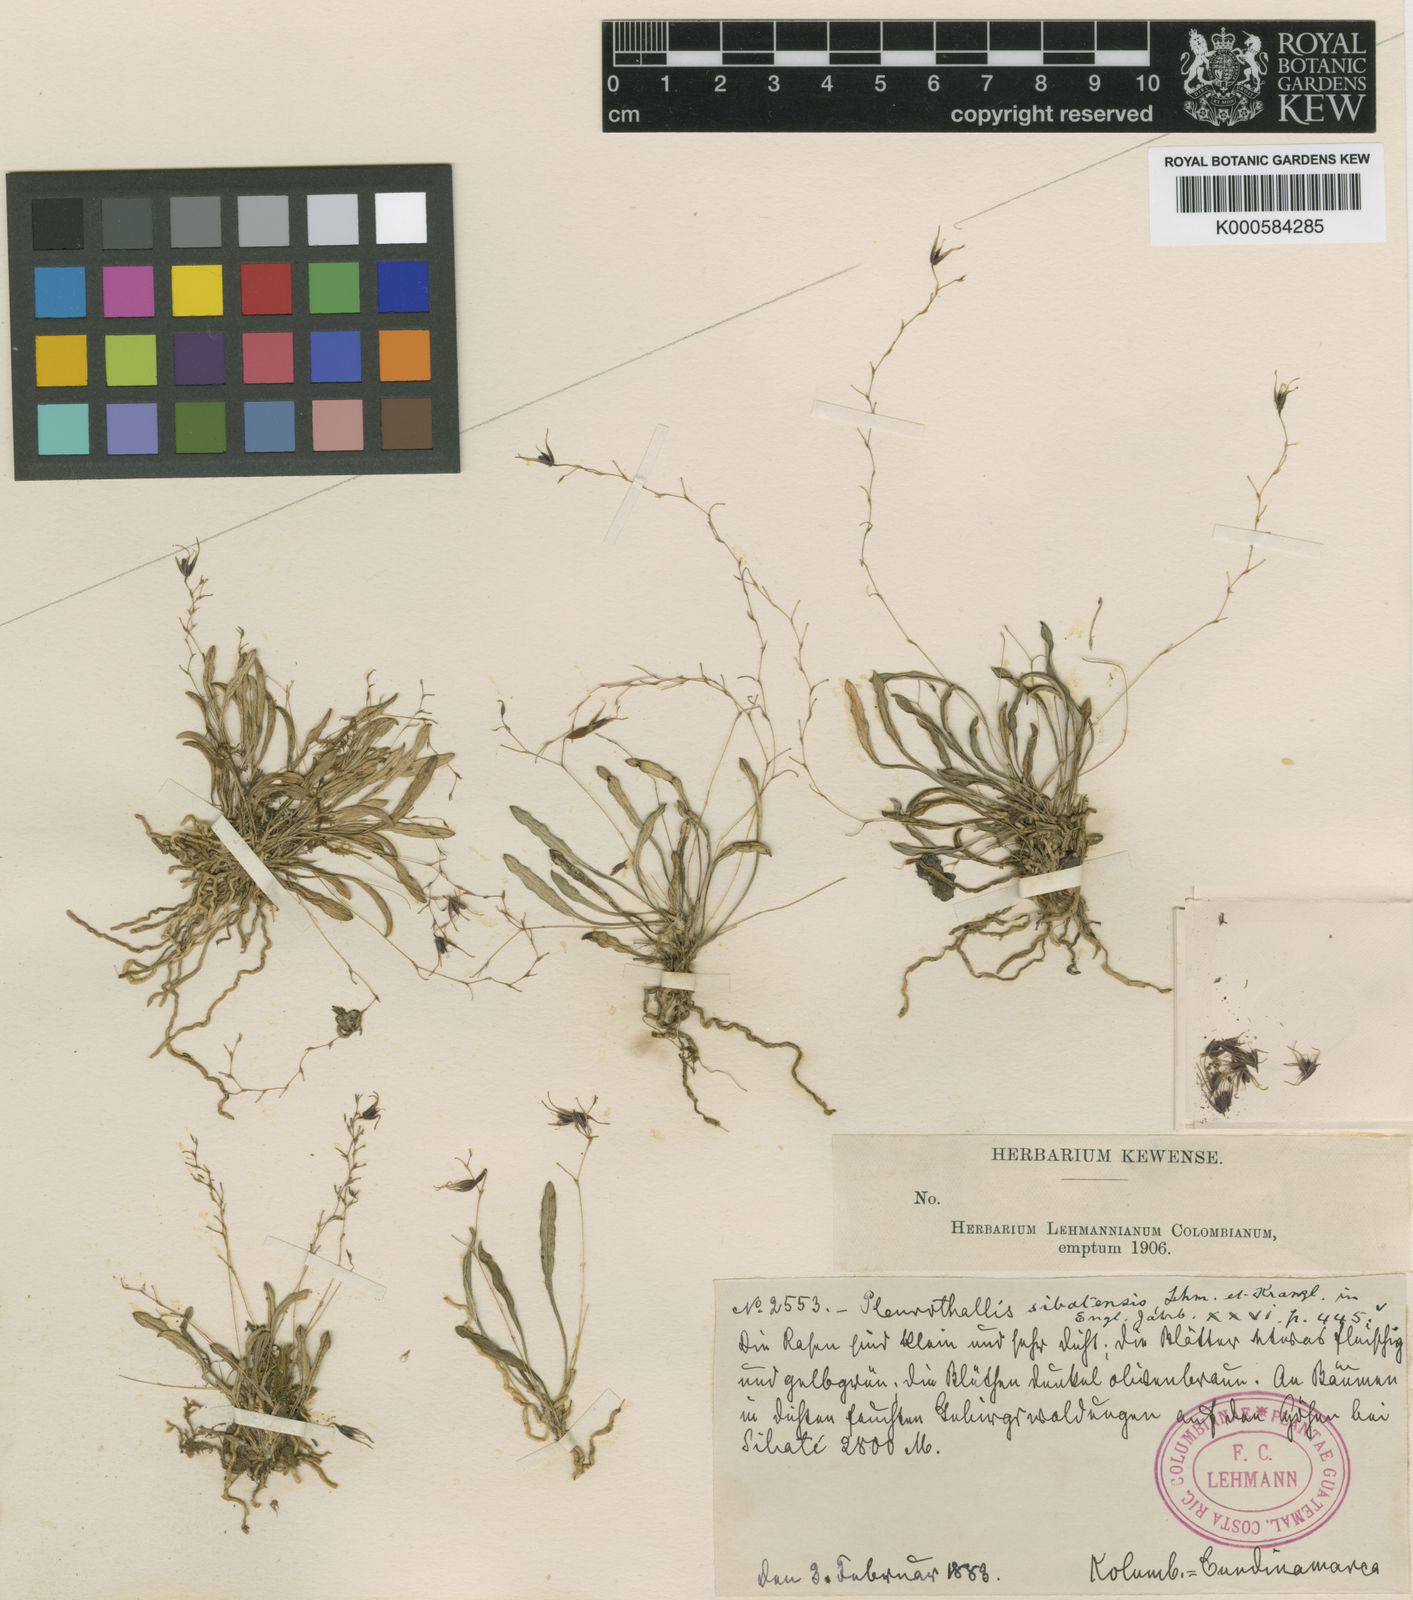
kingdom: Plantae
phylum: Tracheophyta
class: Liliopsida
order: Asparagales
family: Orchidaceae
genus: Muscarella
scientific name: Muscarella sibatensis
